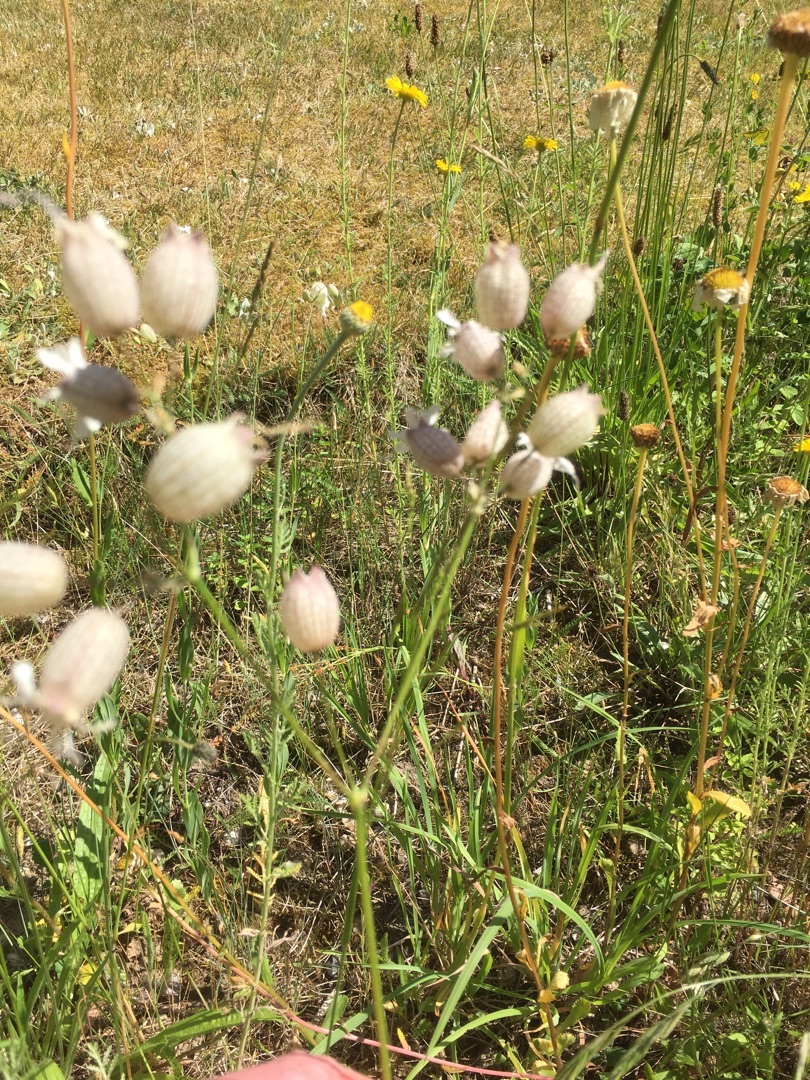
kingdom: Plantae
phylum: Tracheophyta
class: Magnoliopsida
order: Caryophyllales
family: Caryophyllaceae
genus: Silene
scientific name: Silene vulgaris
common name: Blæresmælde
